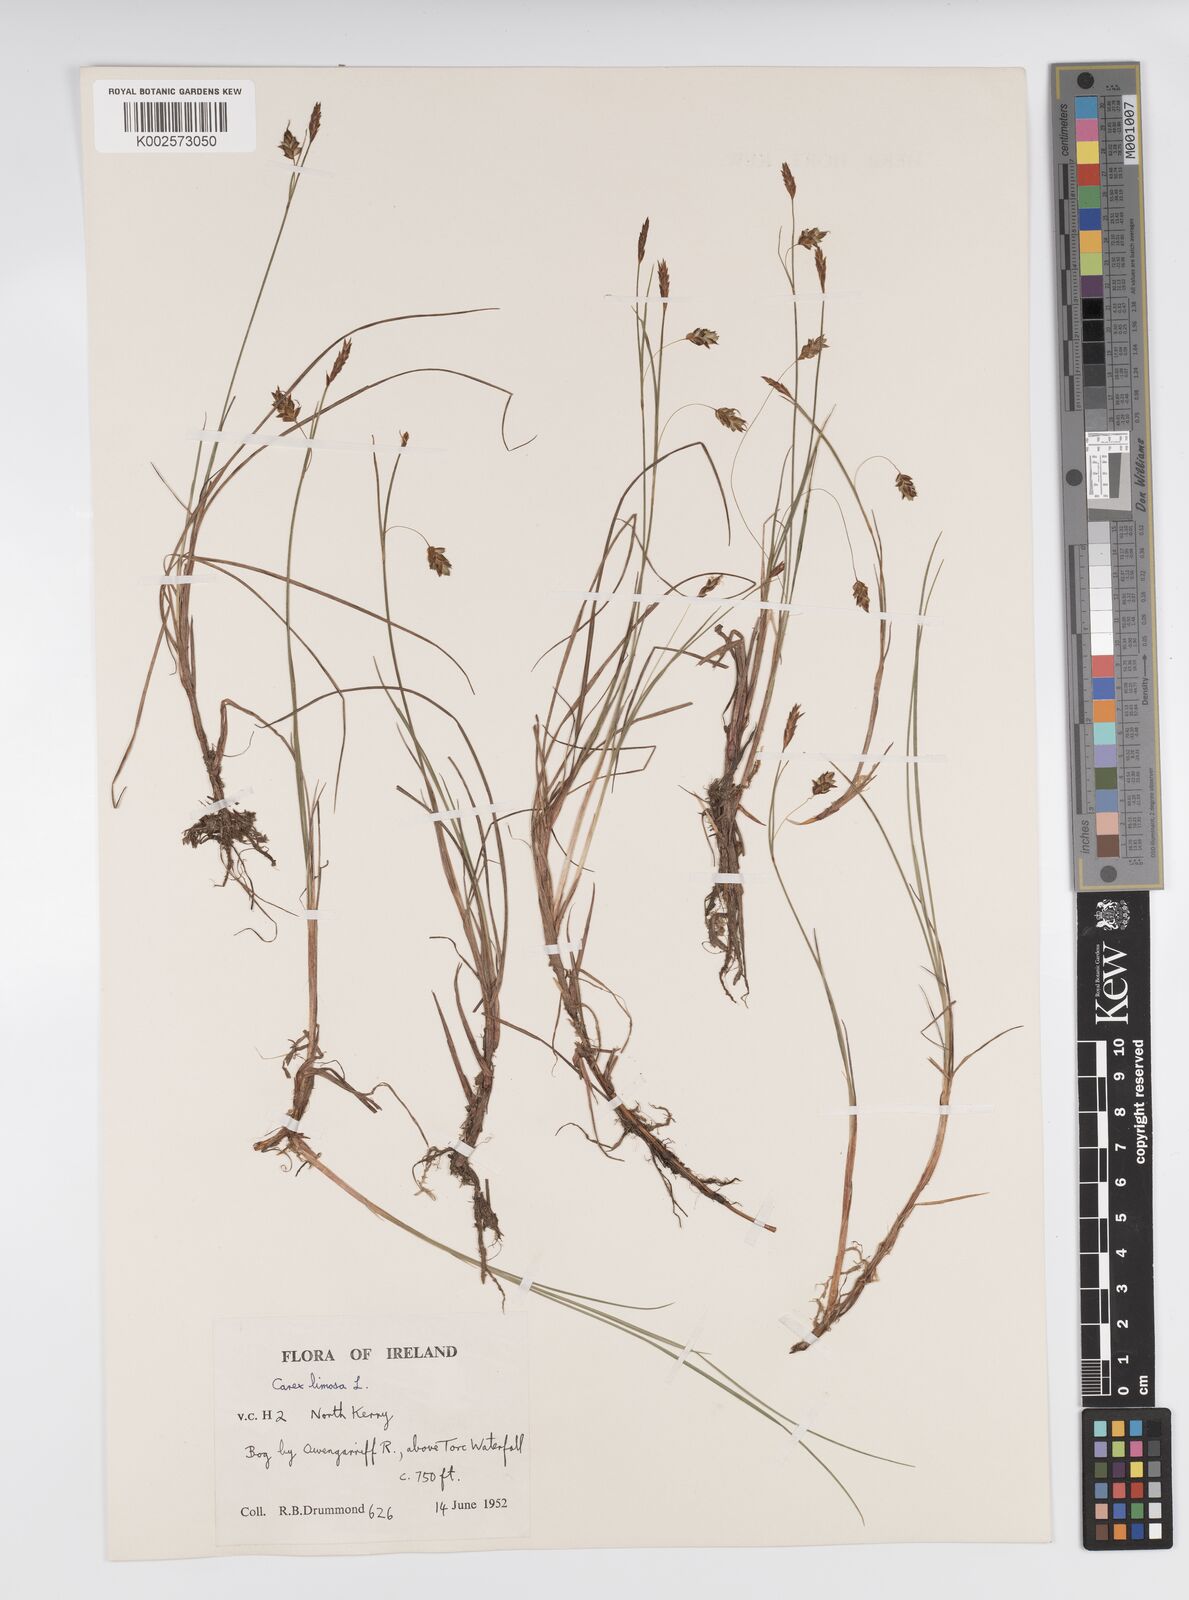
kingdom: Plantae
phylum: Tracheophyta
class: Liliopsida
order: Poales
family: Cyperaceae
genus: Carex
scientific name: Carex limosa
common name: Bog sedge
